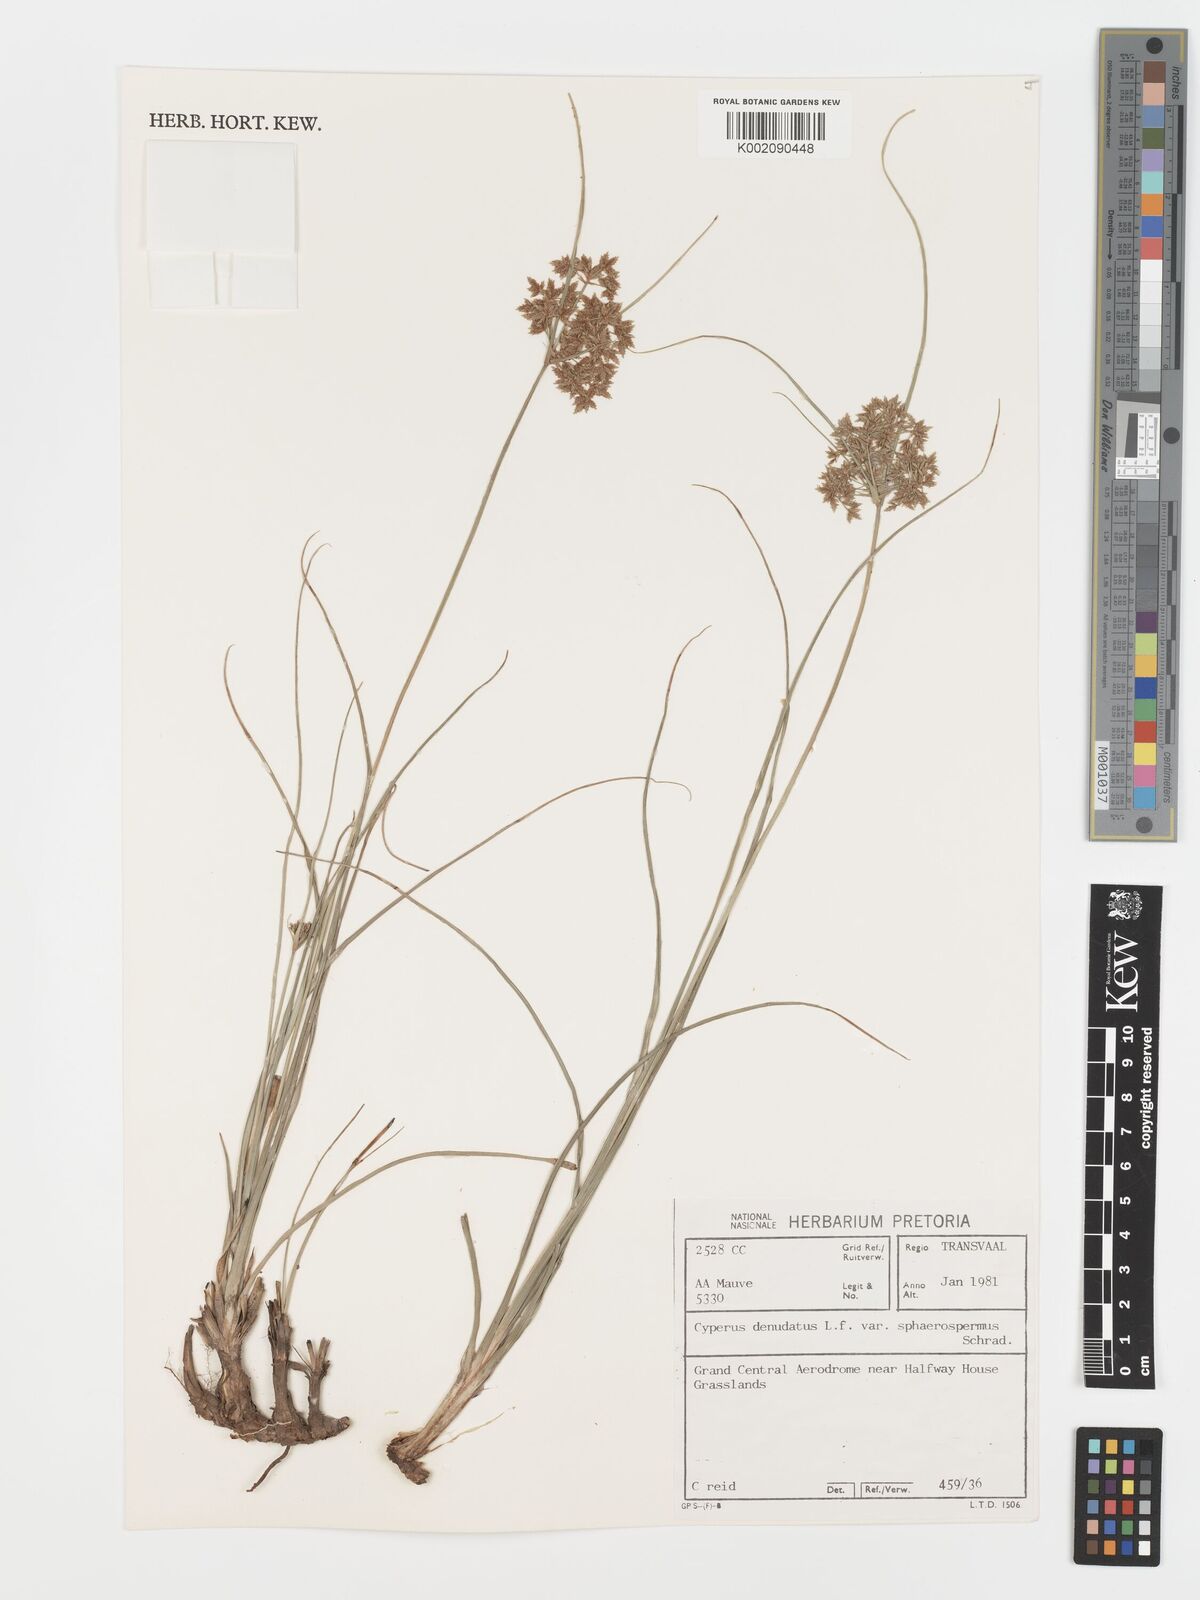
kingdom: Plantae
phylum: Tracheophyta
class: Liliopsida
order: Poales
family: Cyperaceae
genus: Cyperus
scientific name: Cyperus sphaerospermus
